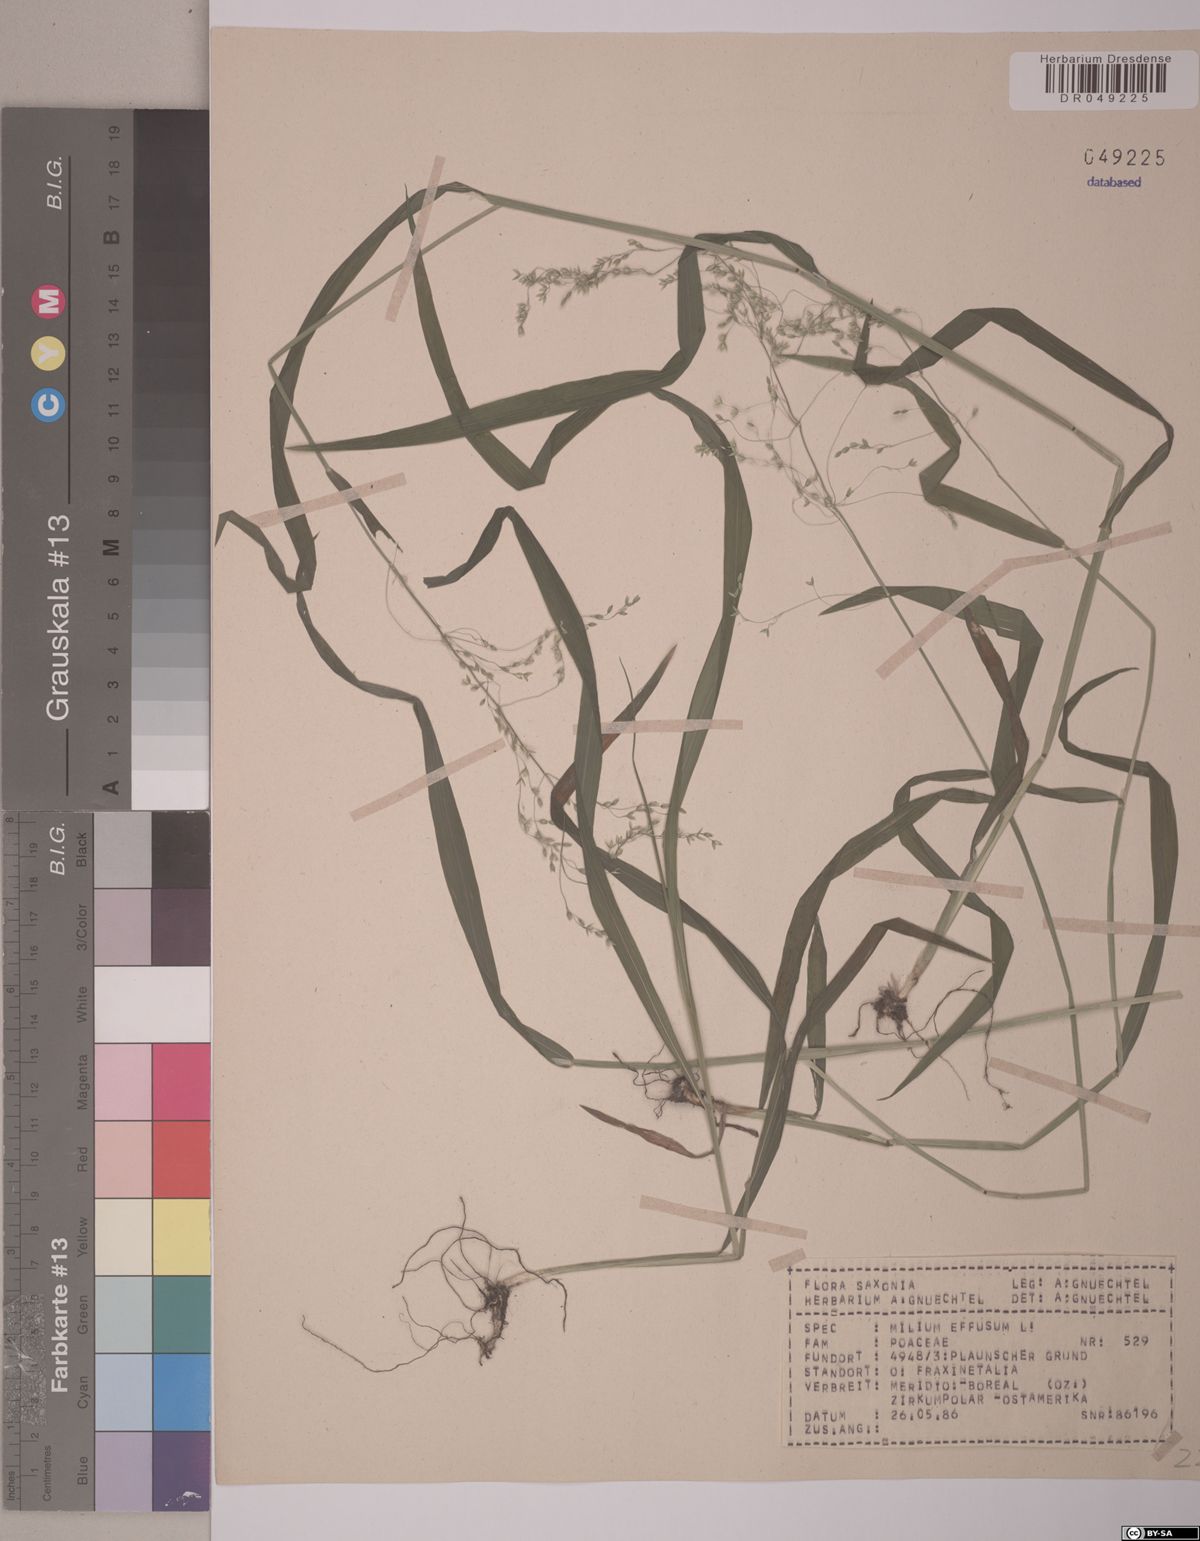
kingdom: Plantae
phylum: Tracheophyta
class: Liliopsida
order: Poales
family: Poaceae
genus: Milium
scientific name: Milium effusum
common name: Wood millet
